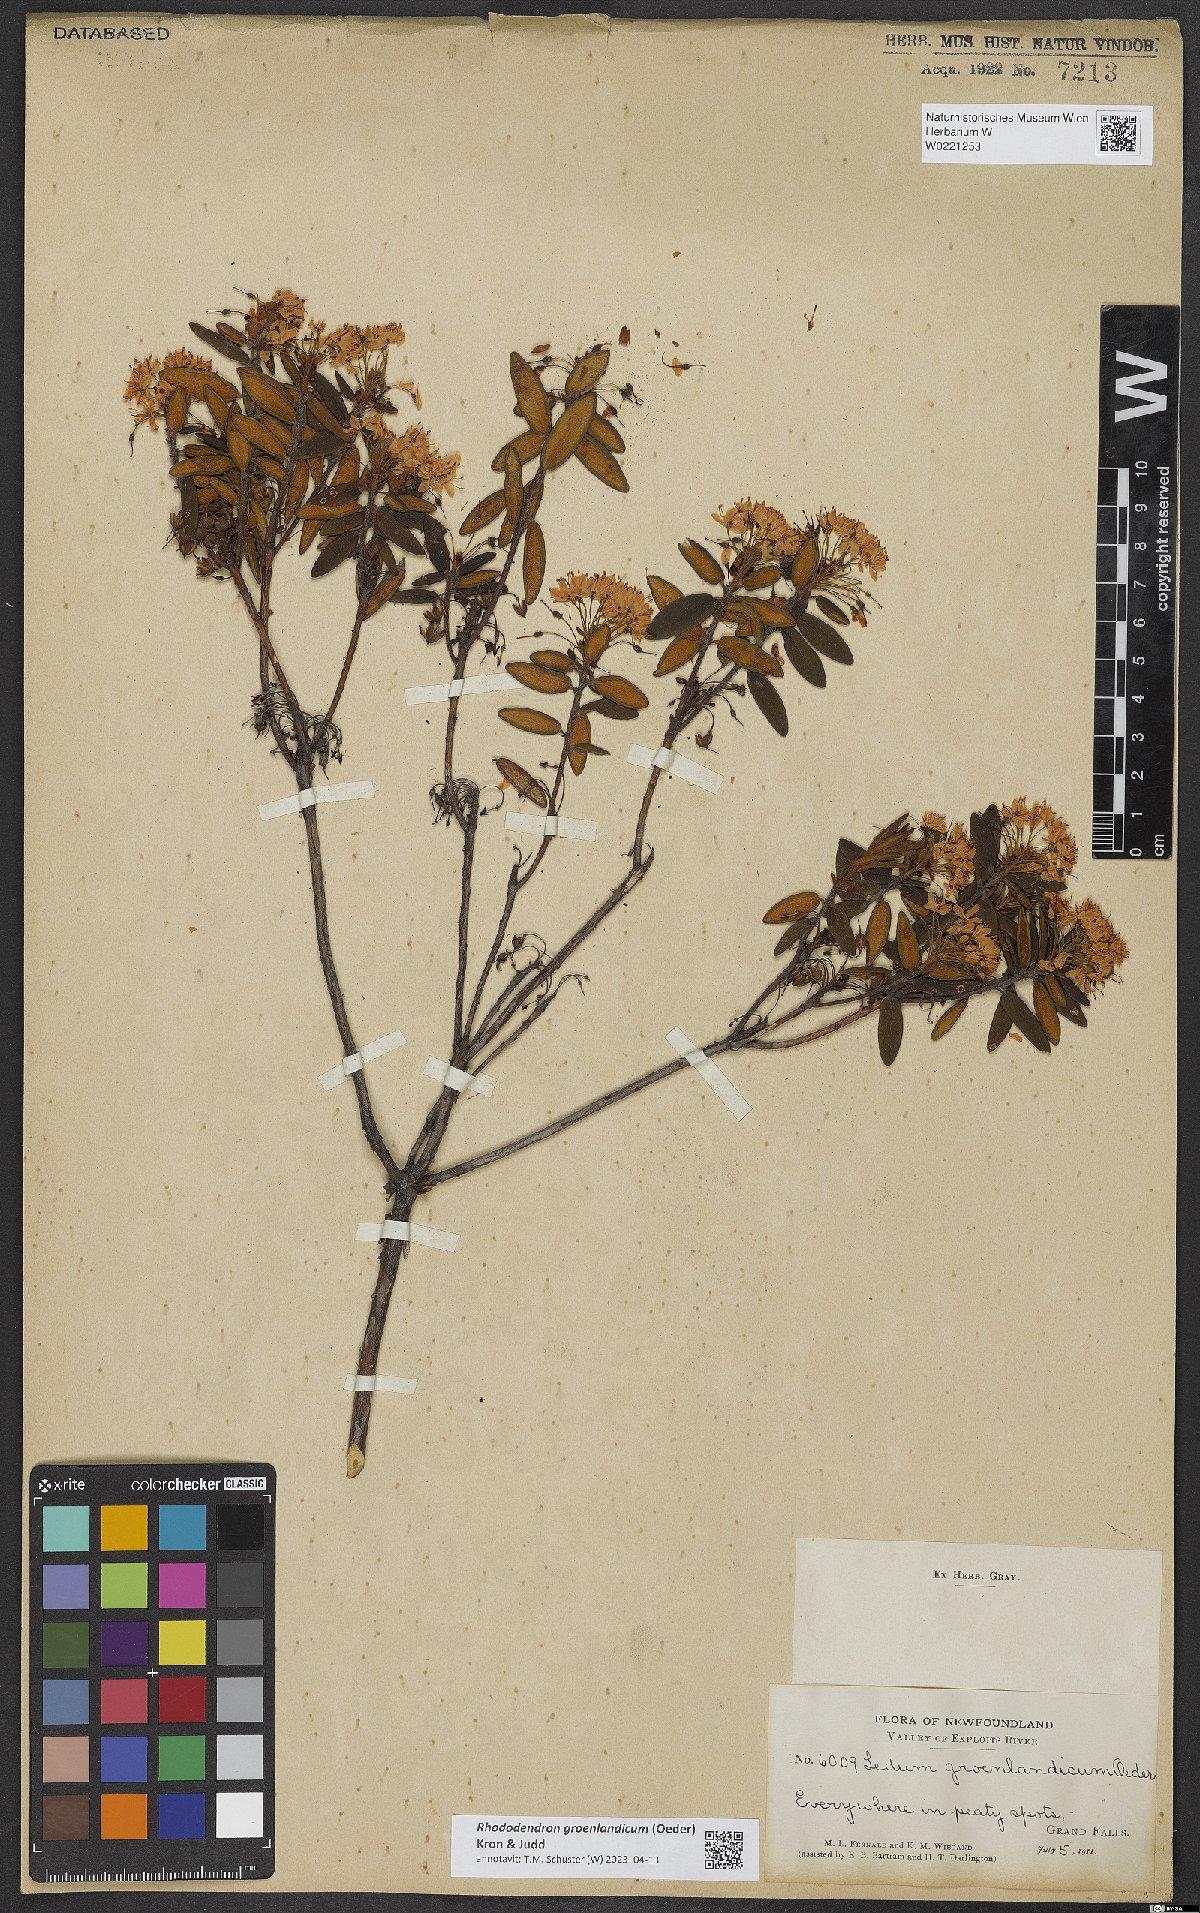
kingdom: Plantae
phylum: Tracheophyta
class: Magnoliopsida
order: Ericales
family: Ericaceae
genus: Rhododendron
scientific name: Rhododendron groenlandicum
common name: Bog labrador tea
